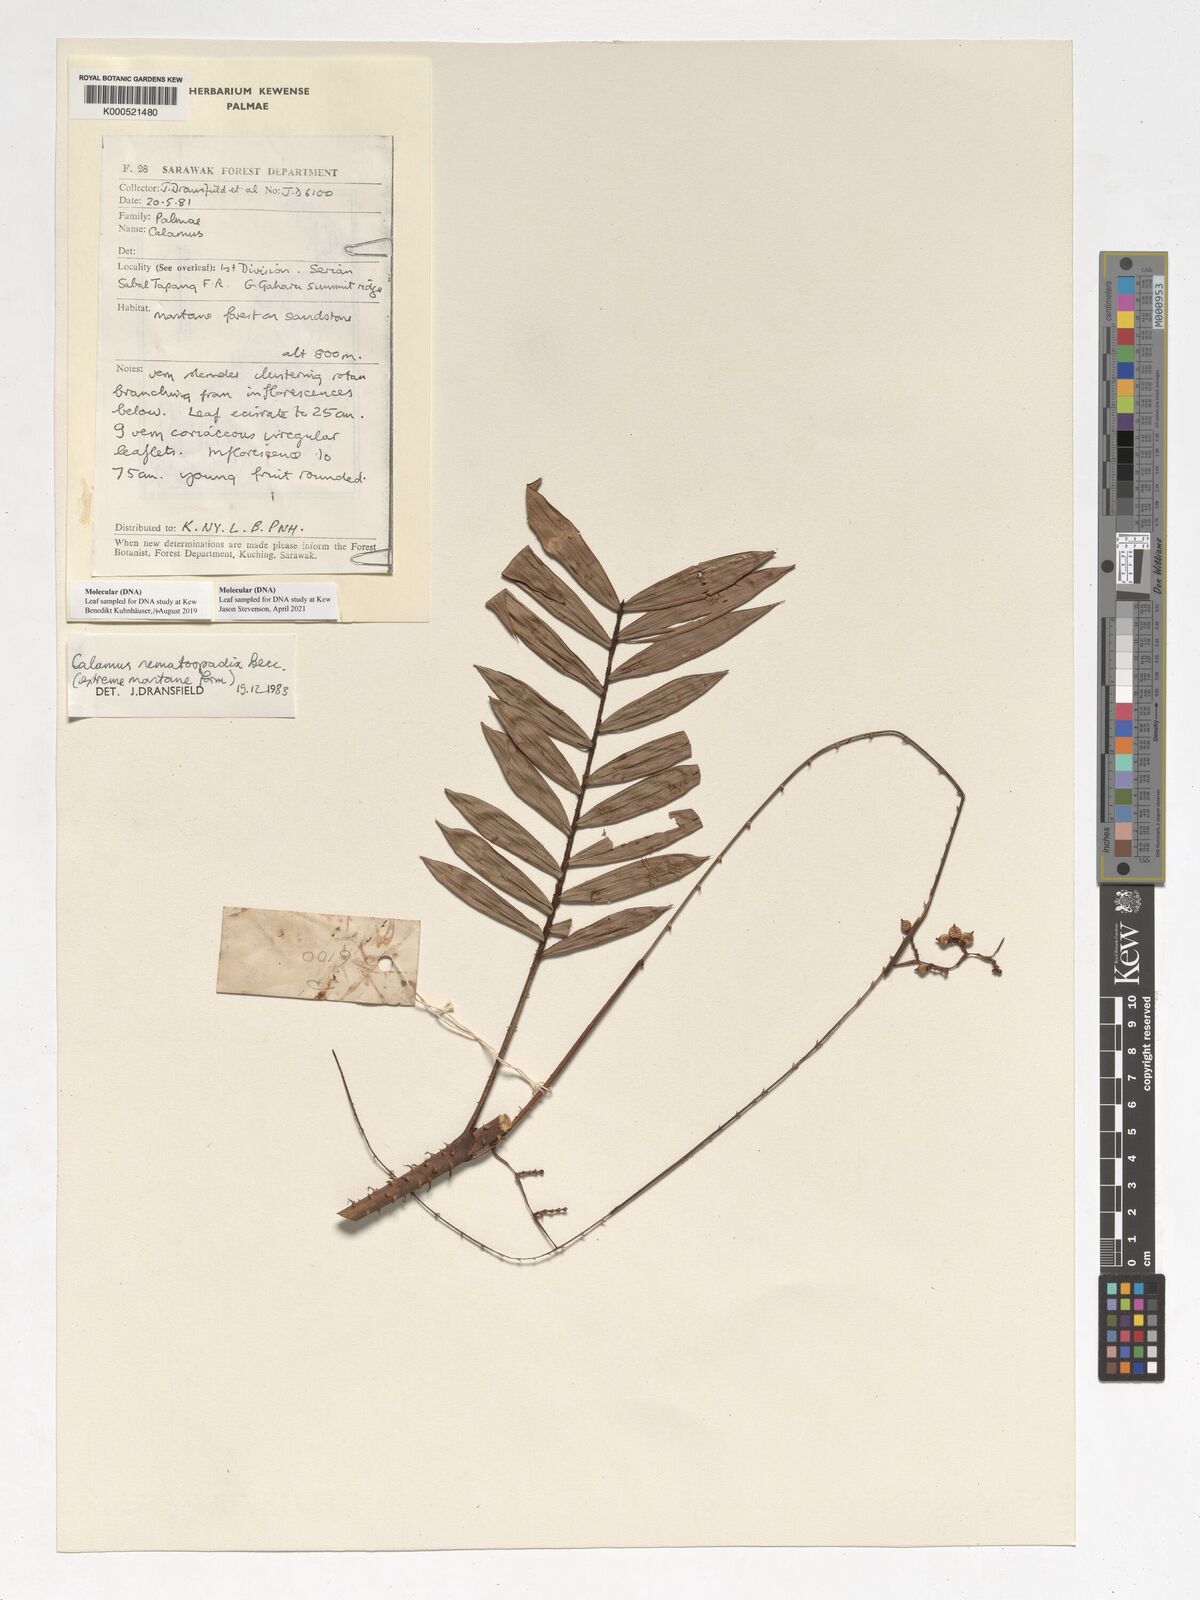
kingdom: Plantae
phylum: Tracheophyta
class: Liliopsida
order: Arecales
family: Arecaceae
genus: Calamus
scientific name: Calamus nematospadix
